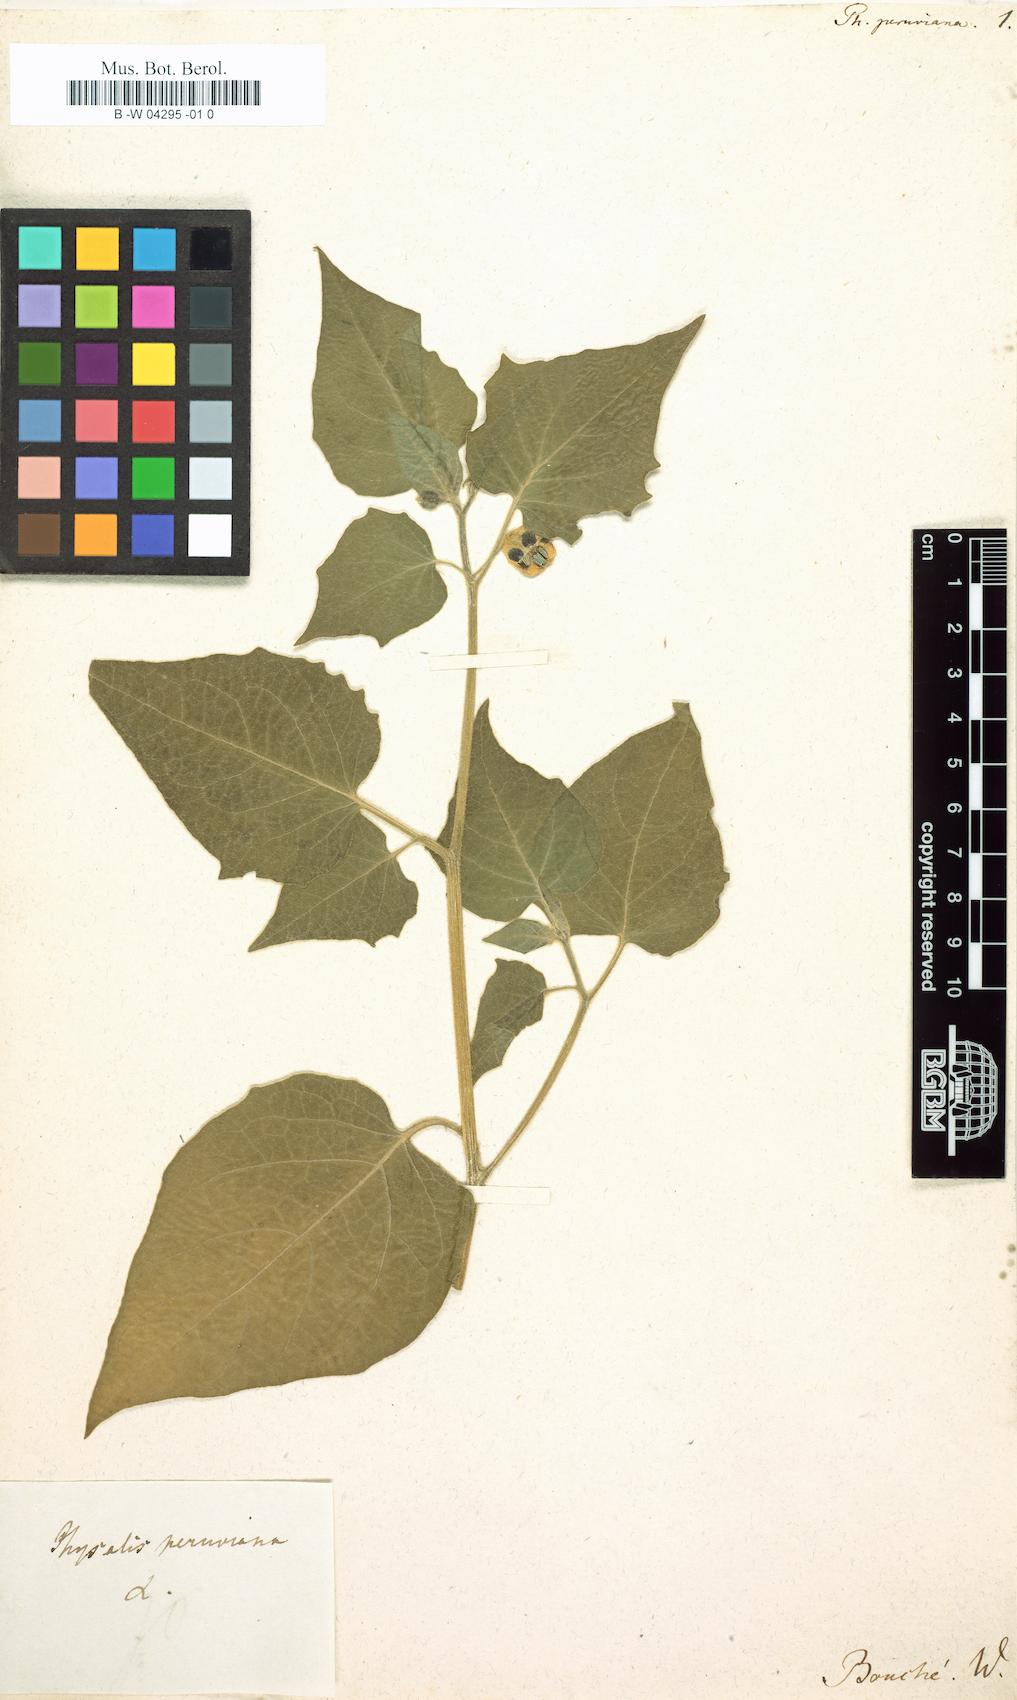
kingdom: Plantae
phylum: Tracheophyta
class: Magnoliopsida
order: Solanales
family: Solanaceae
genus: Physalis
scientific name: Physalis peruviana
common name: Cape-gooseberry
